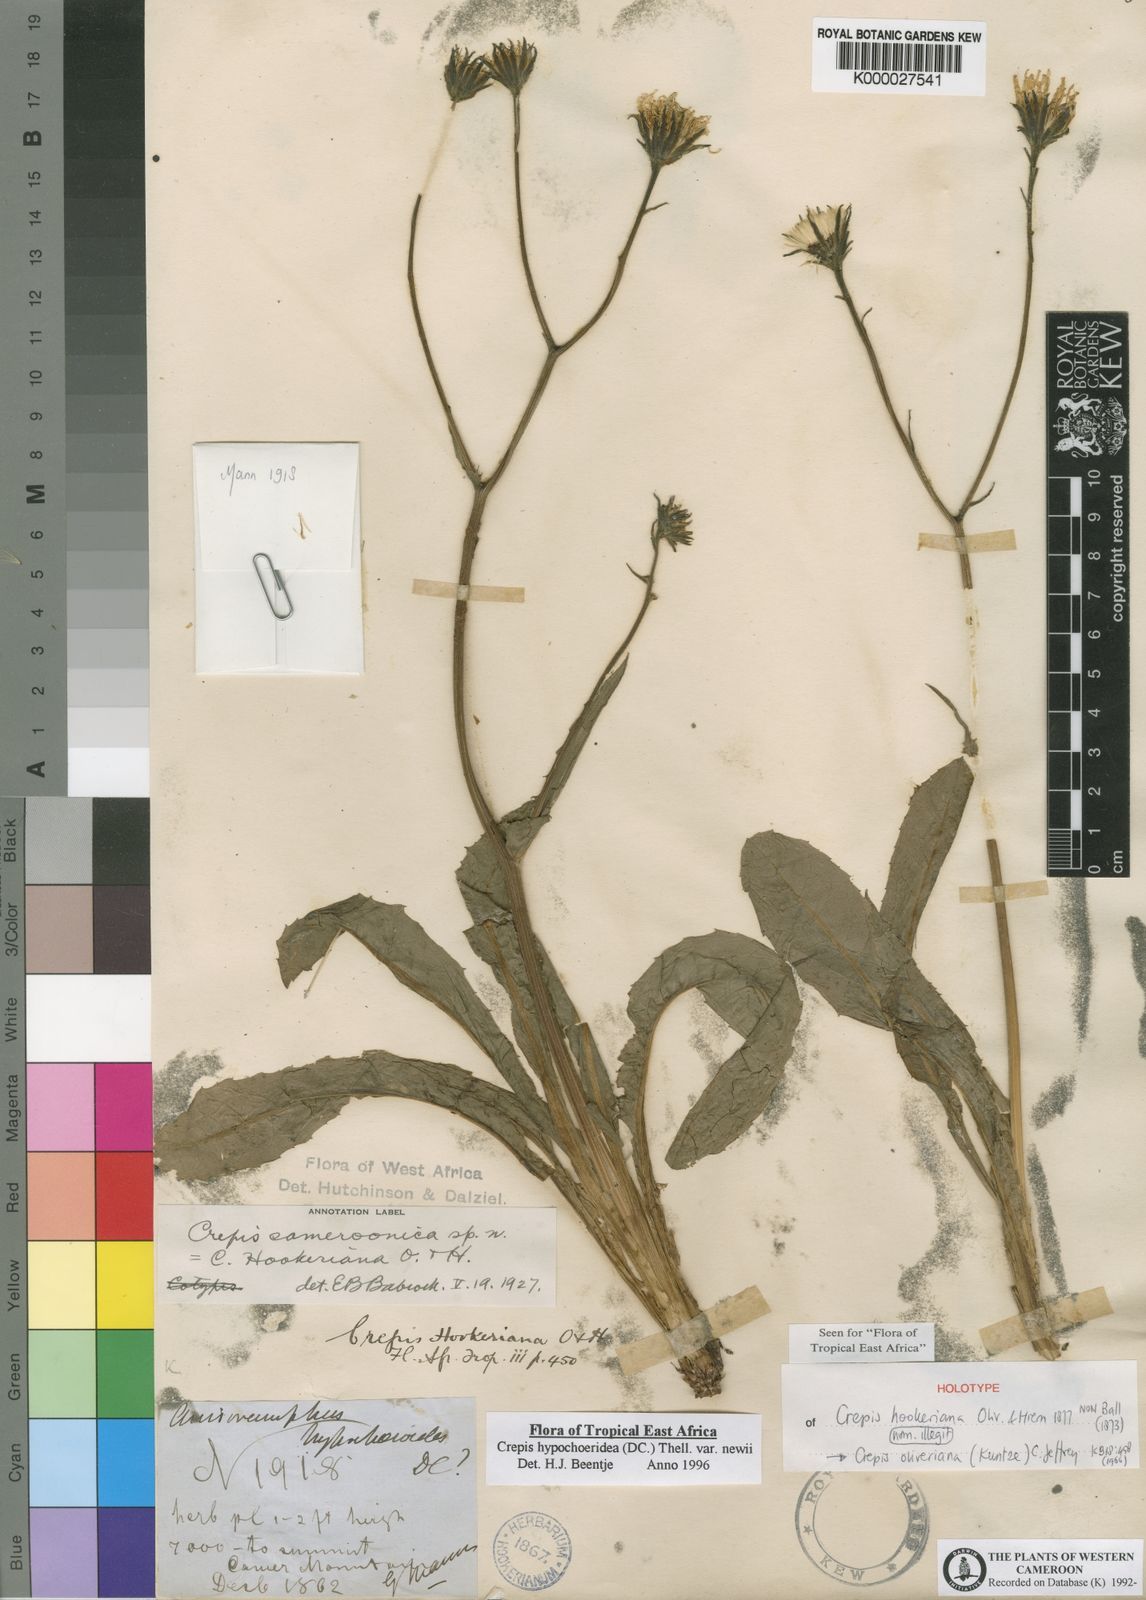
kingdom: Plantae
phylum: Tracheophyta
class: Magnoliopsida
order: Asterales
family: Asteraceae
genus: Crepis
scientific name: Crepis newii
